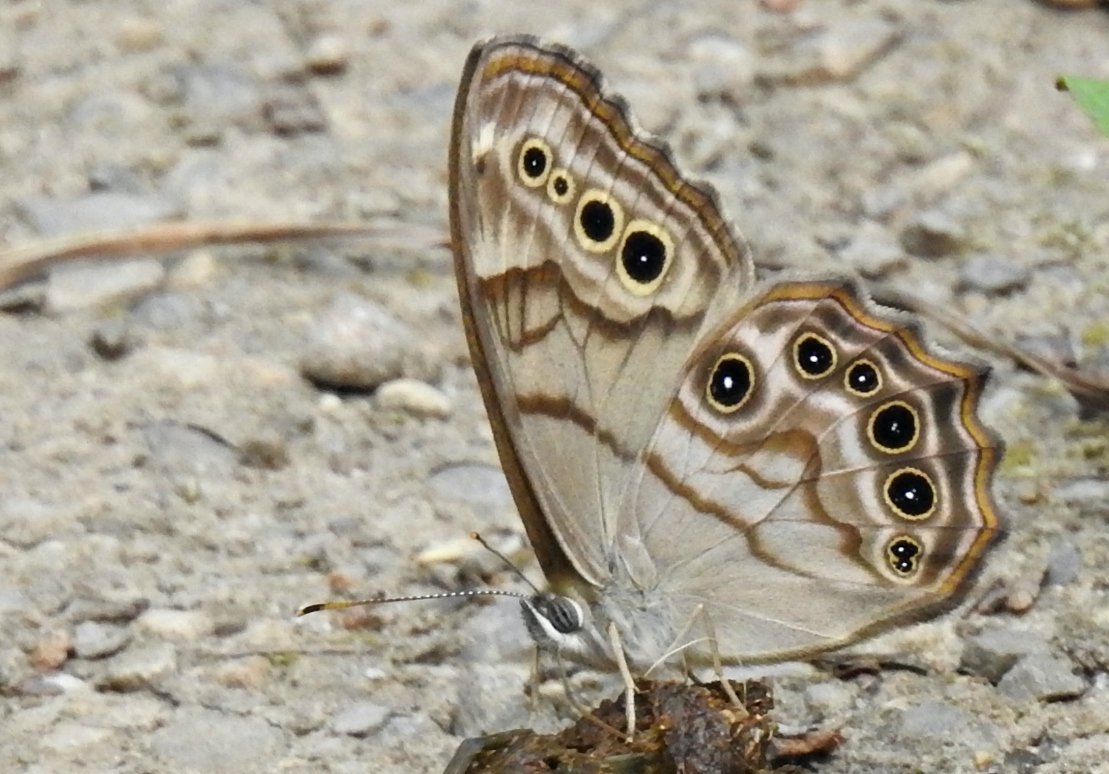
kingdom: Animalia
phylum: Arthropoda
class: Insecta
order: Lepidoptera
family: Nymphalidae
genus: Lethe
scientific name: Lethe anthedon
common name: Northern Pearly-Eye
